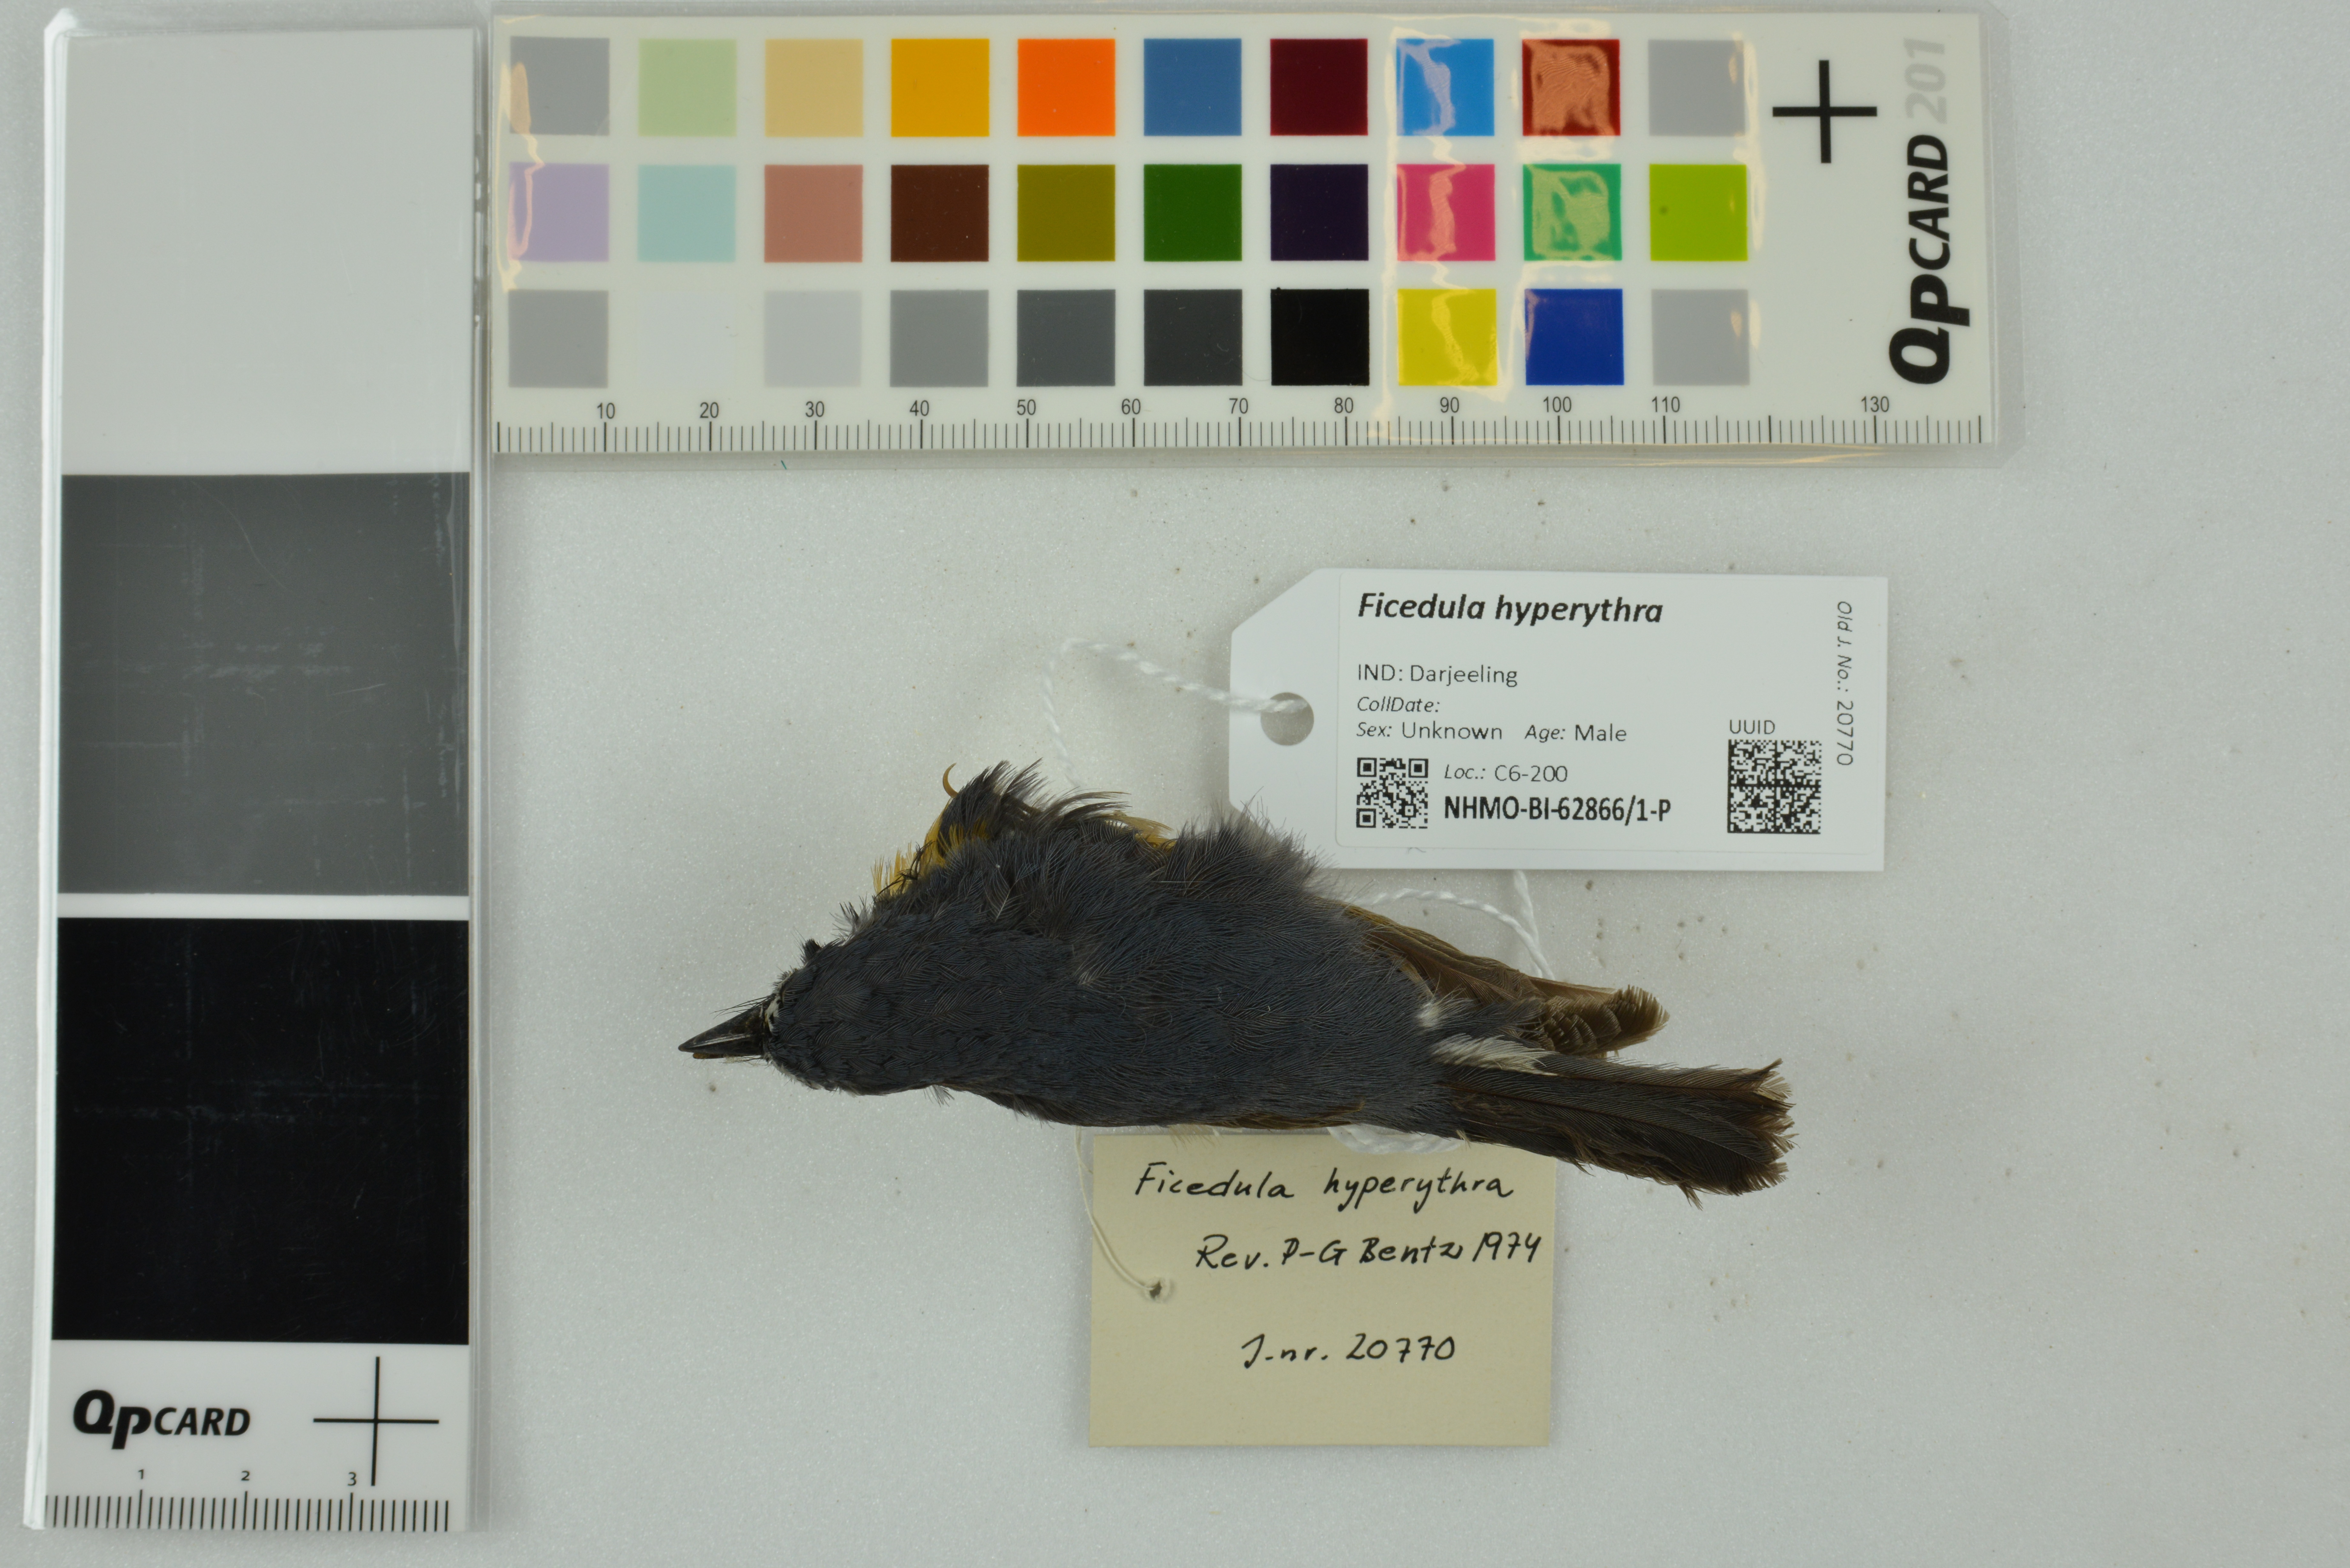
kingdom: Animalia
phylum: Chordata
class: Aves
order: Passeriformes
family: Muscicapidae
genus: Ficedula
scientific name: Ficedula hyperythra
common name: Snowy-browed flycatcher
